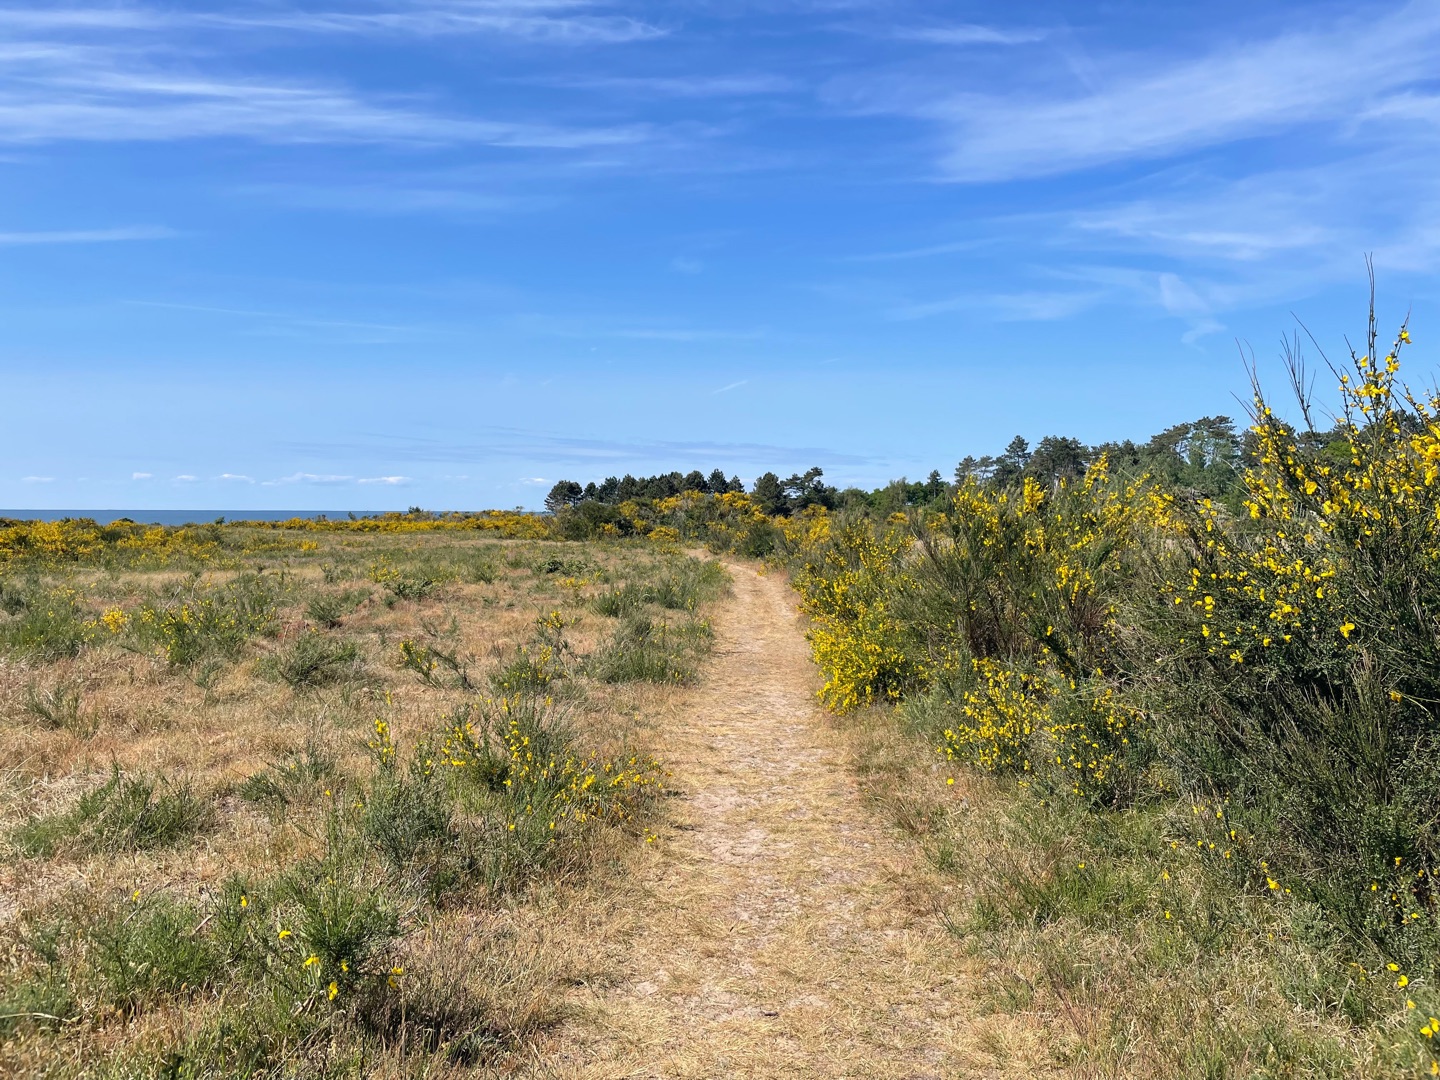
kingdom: Plantae
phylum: Tracheophyta
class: Magnoliopsida
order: Fabales
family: Fabaceae
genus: Cytisus
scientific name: Cytisus scoparius
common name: Almindelig gyvel
